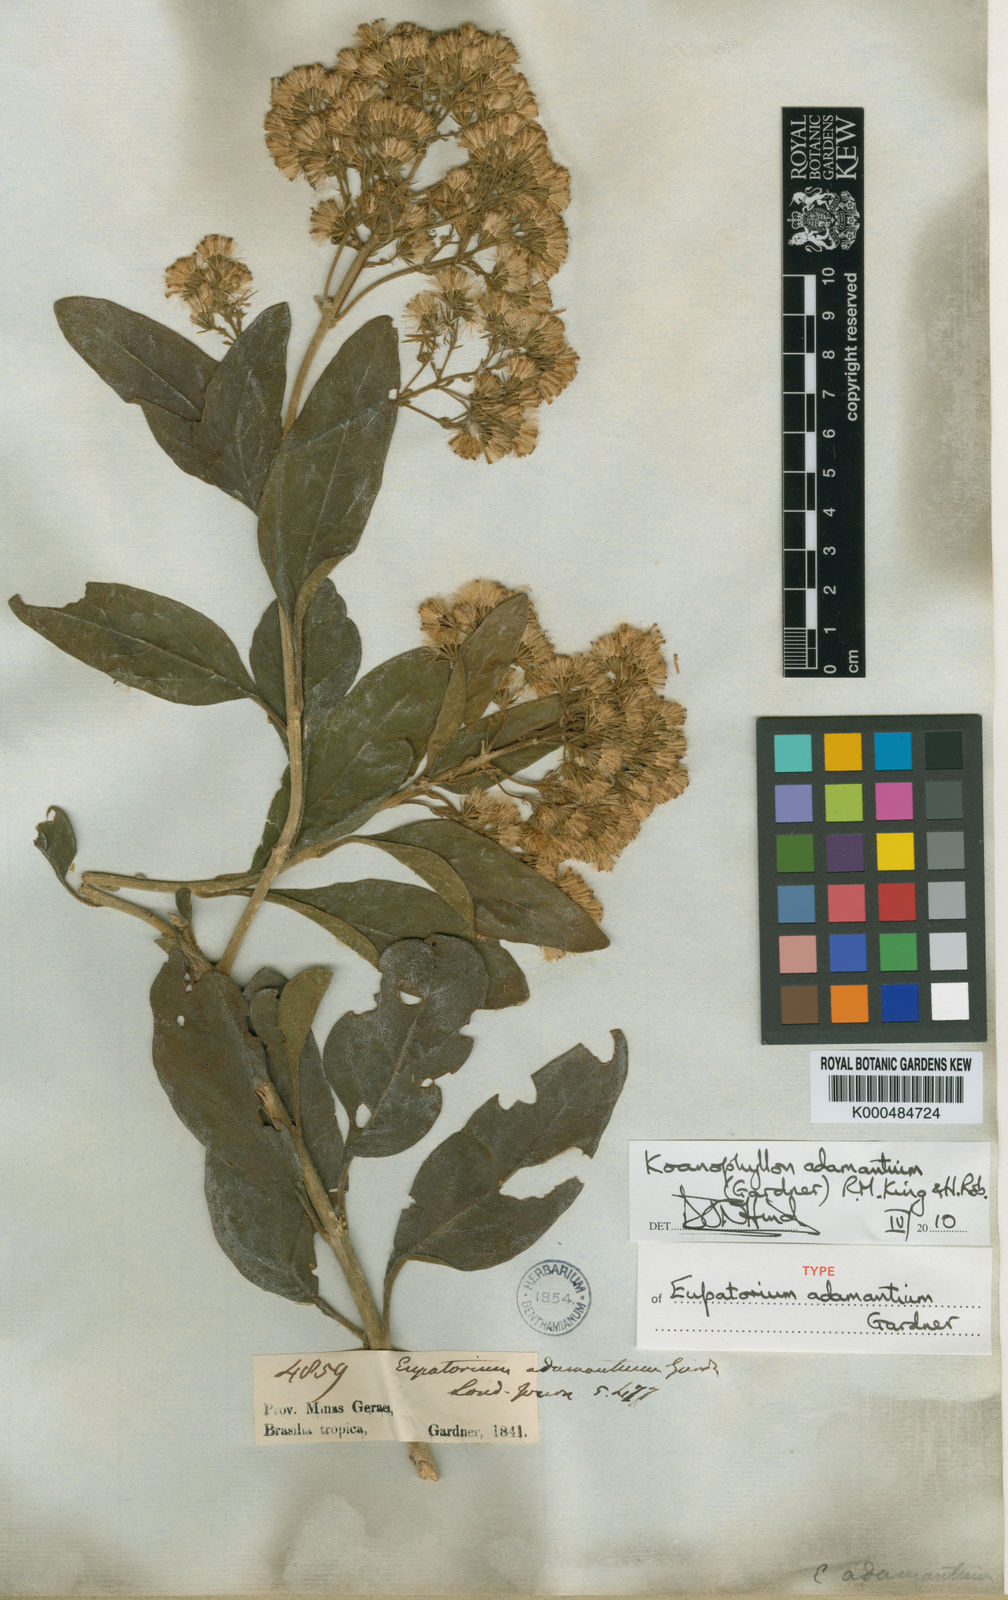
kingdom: Plantae
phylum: Tracheophyta
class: Magnoliopsida
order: Asterales
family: Asteraceae
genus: Koanophyllon
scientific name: Koanophyllon adamantium
